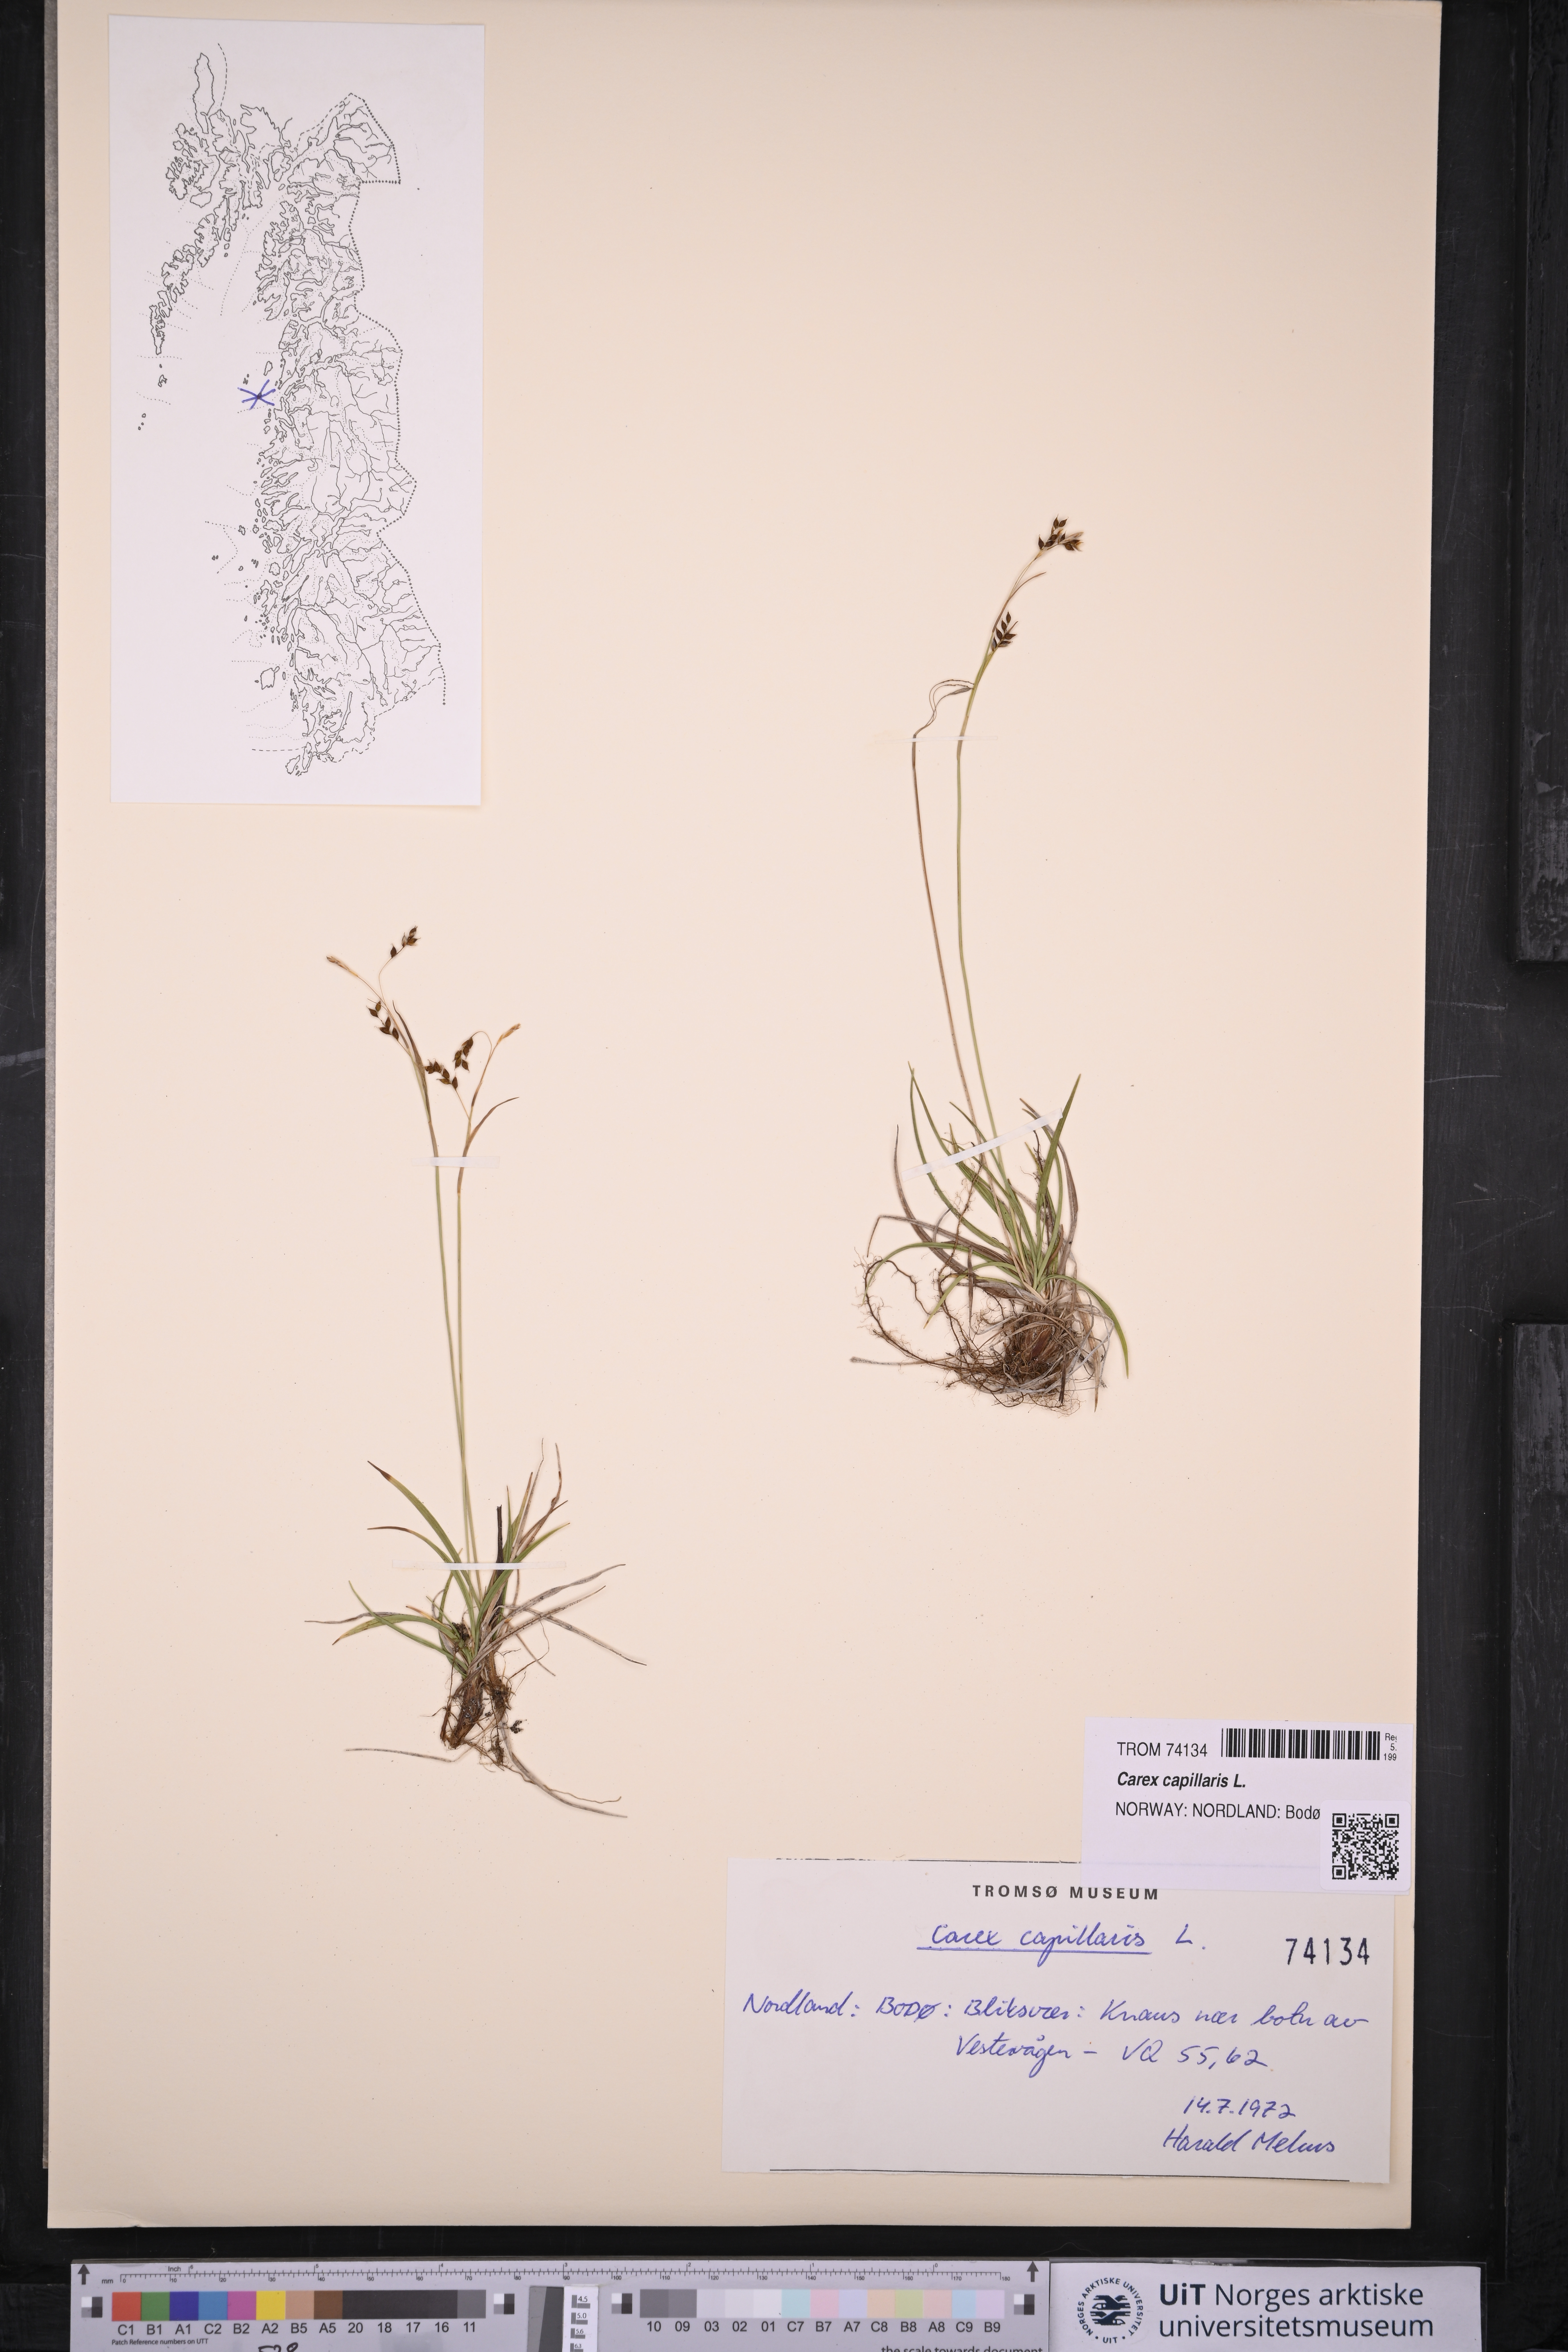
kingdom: Plantae
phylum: Tracheophyta
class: Liliopsida
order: Poales
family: Cyperaceae
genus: Carex
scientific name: Carex capillaris
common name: Hair sedge
